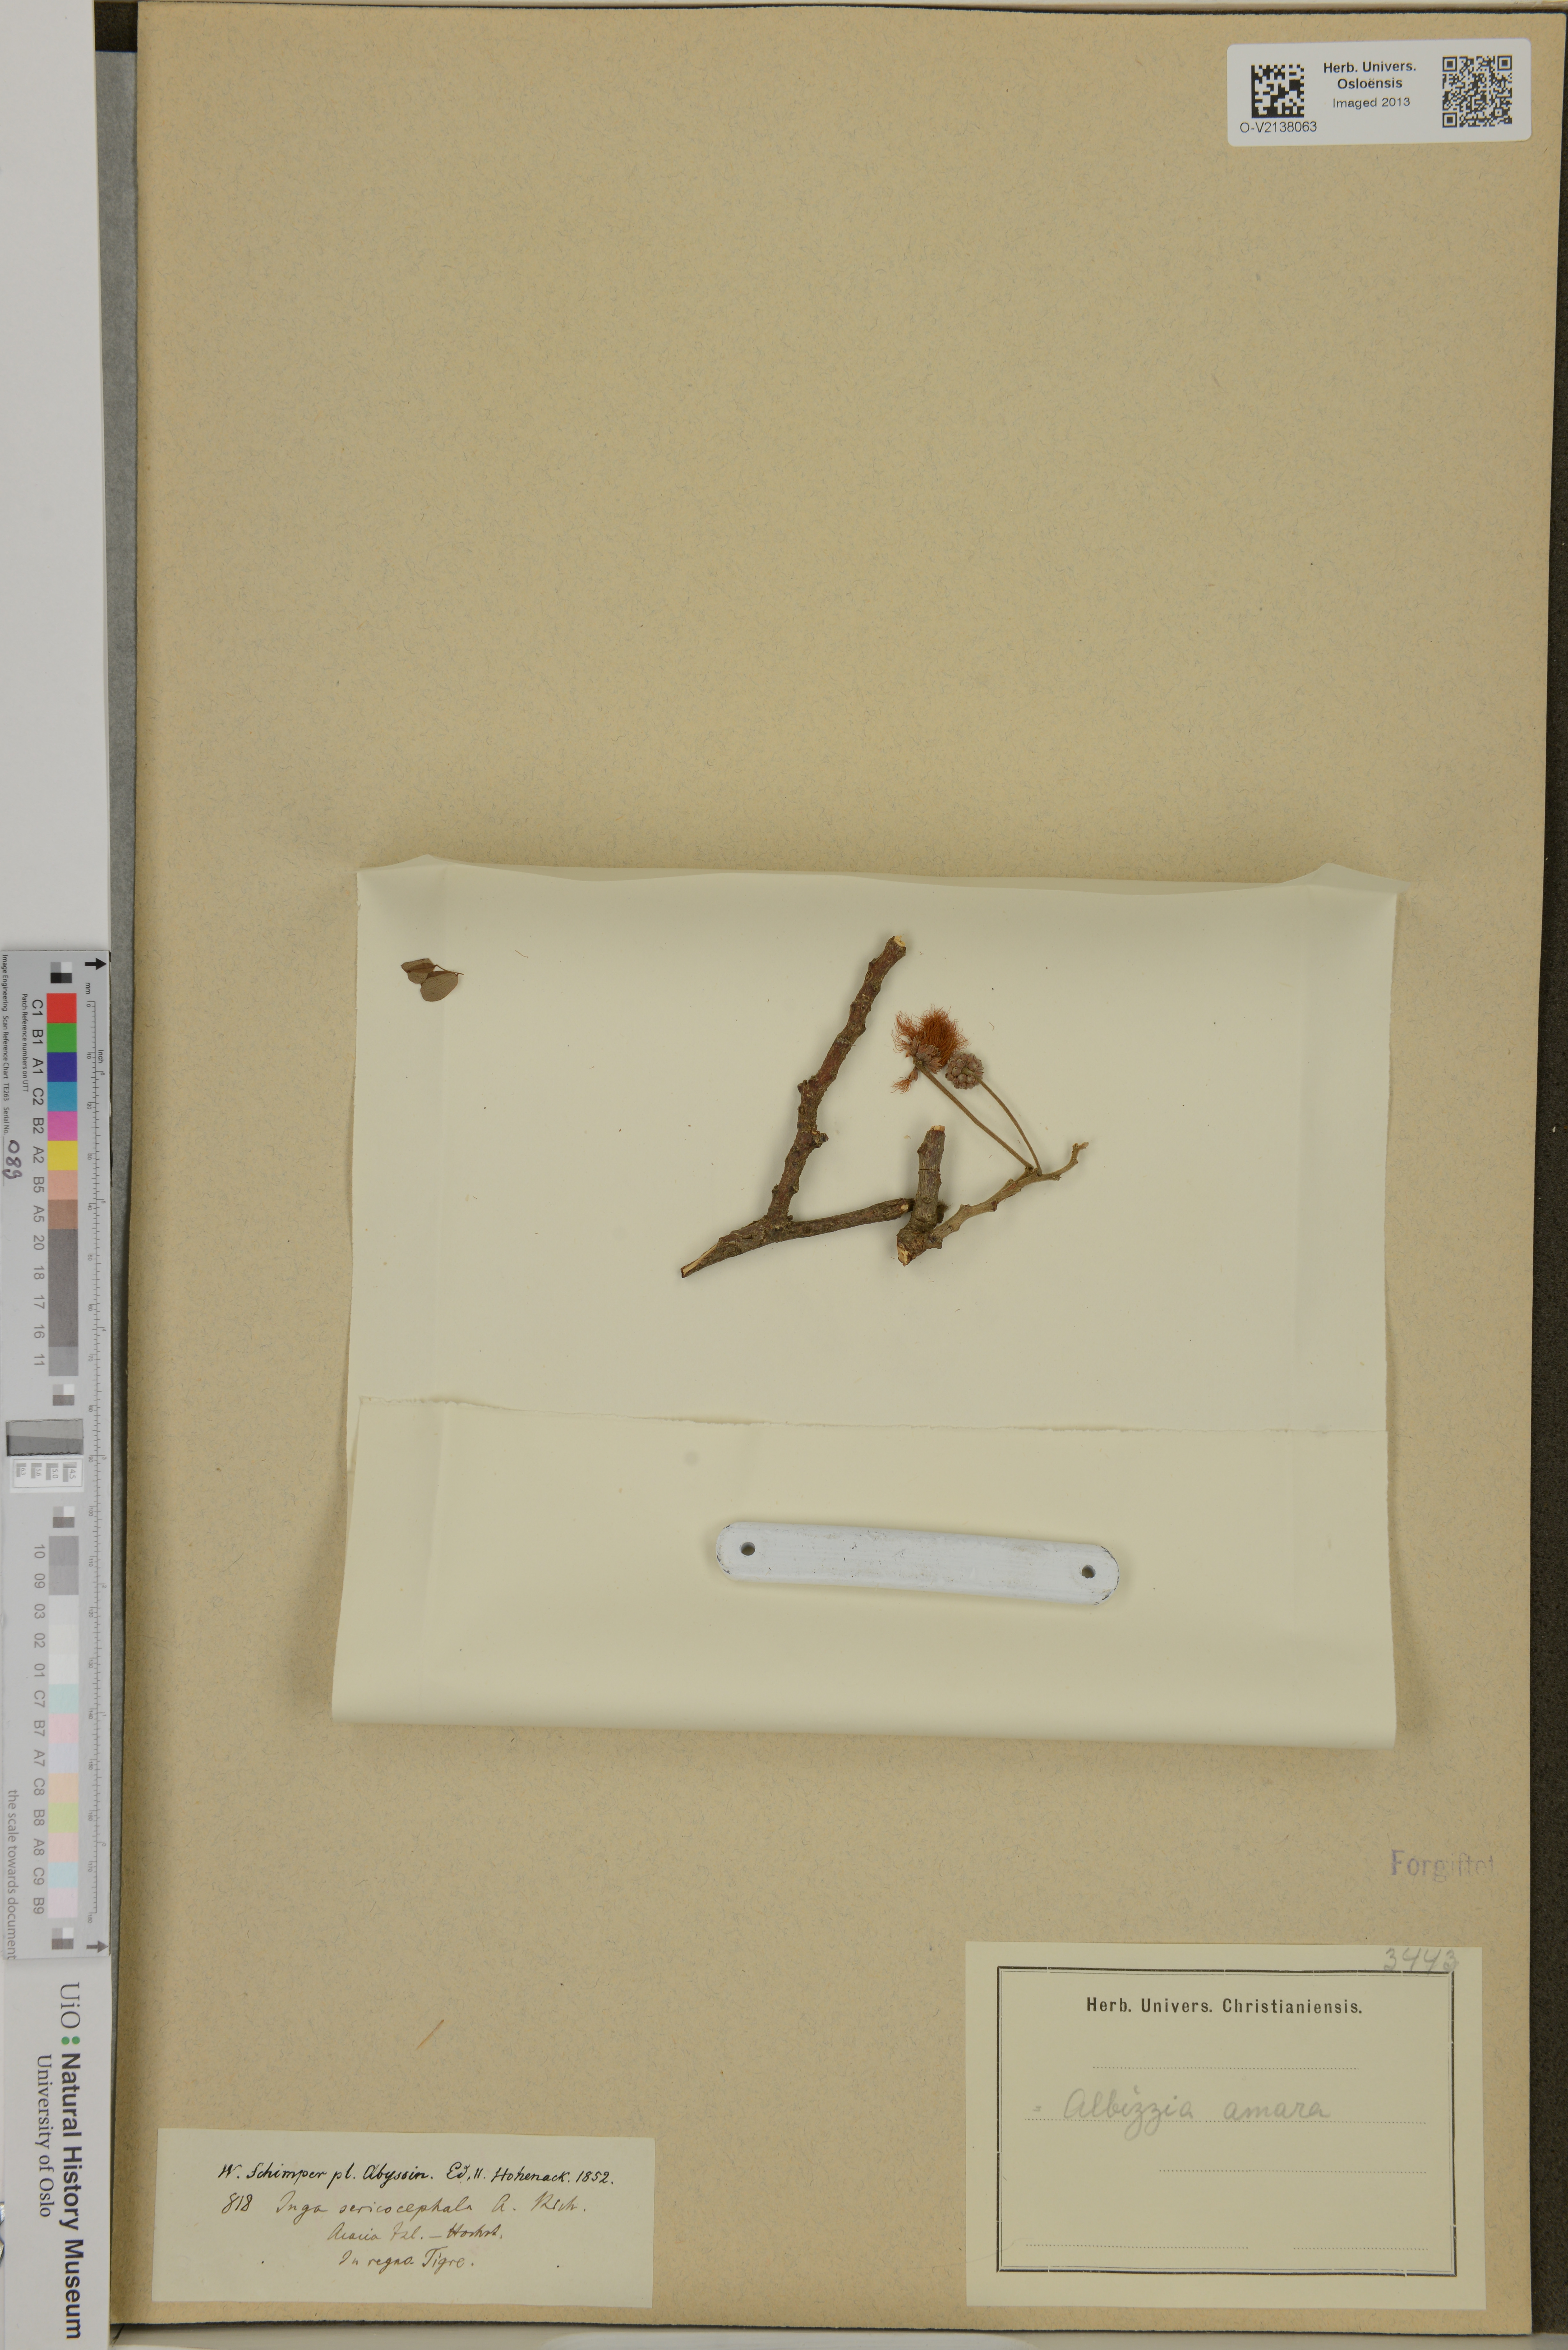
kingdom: Plantae
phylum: Tracheophyta
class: Magnoliopsida
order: Fabales
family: Fabaceae
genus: Albizia
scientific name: Albizia amara
